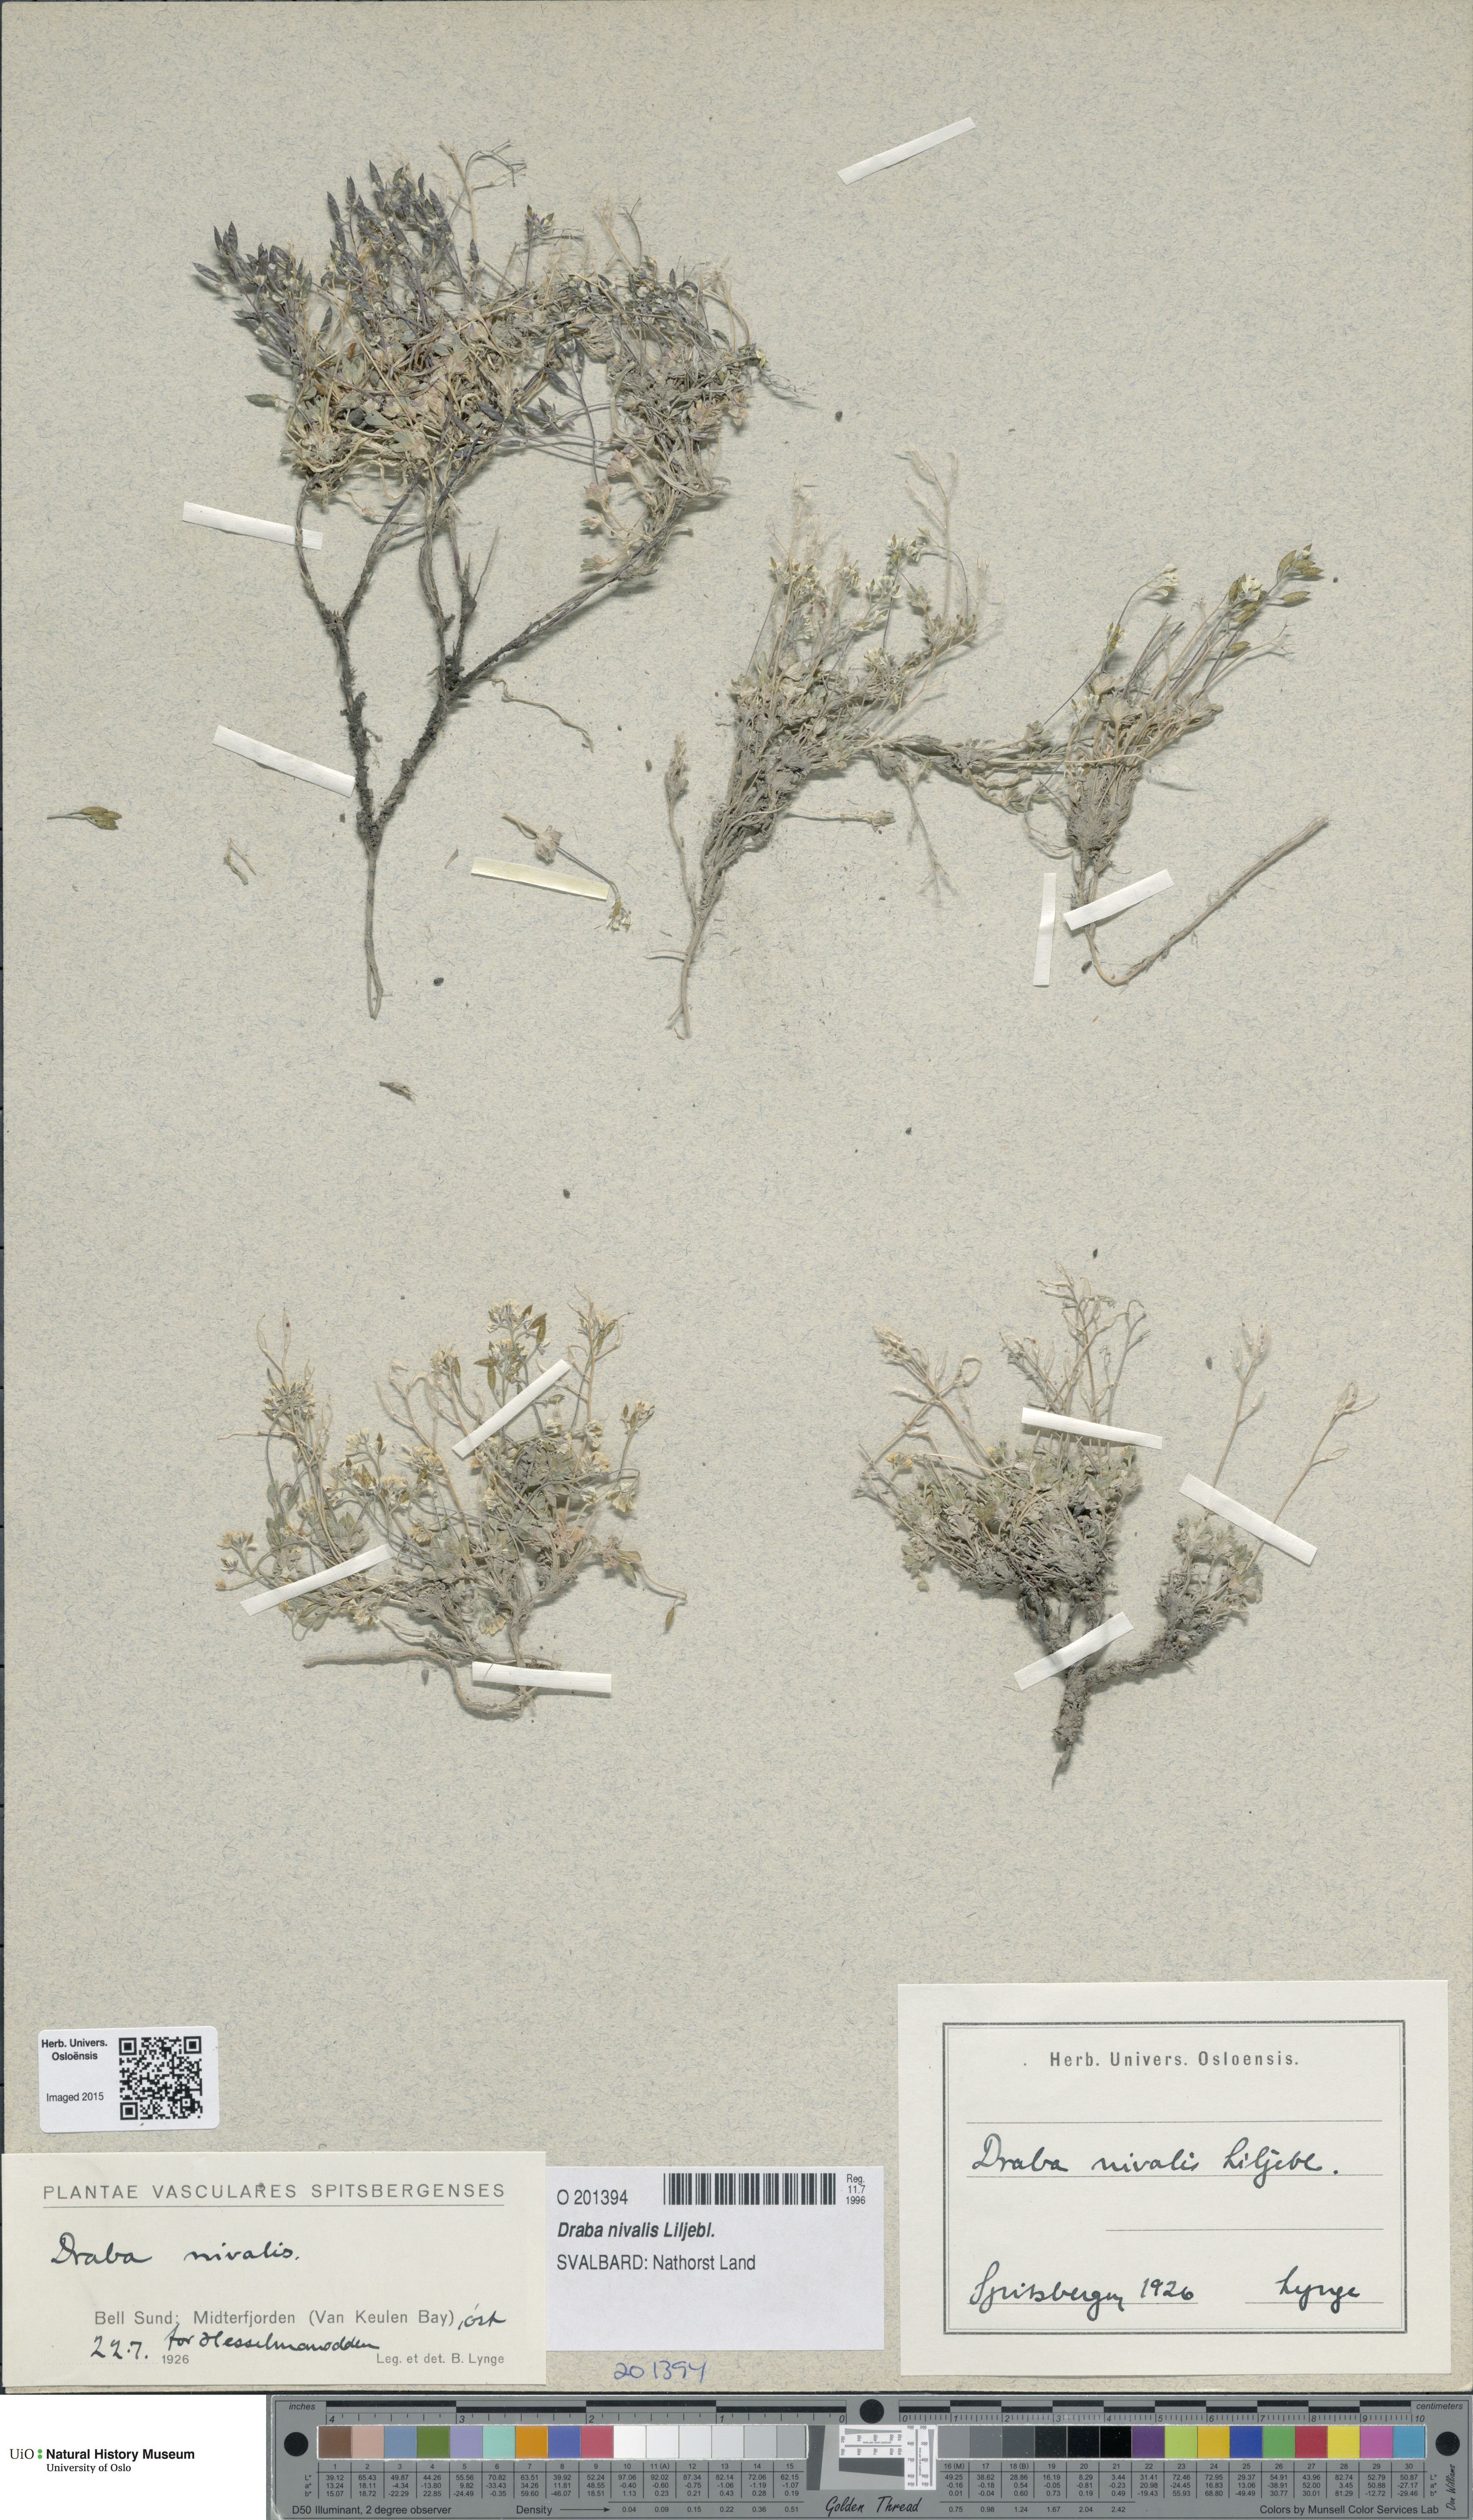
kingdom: Plantae
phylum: Tracheophyta
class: Magnoliopsida
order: Brassicales
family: Brassicaceae
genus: Draba
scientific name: Draba nivalis
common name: Snow draba
